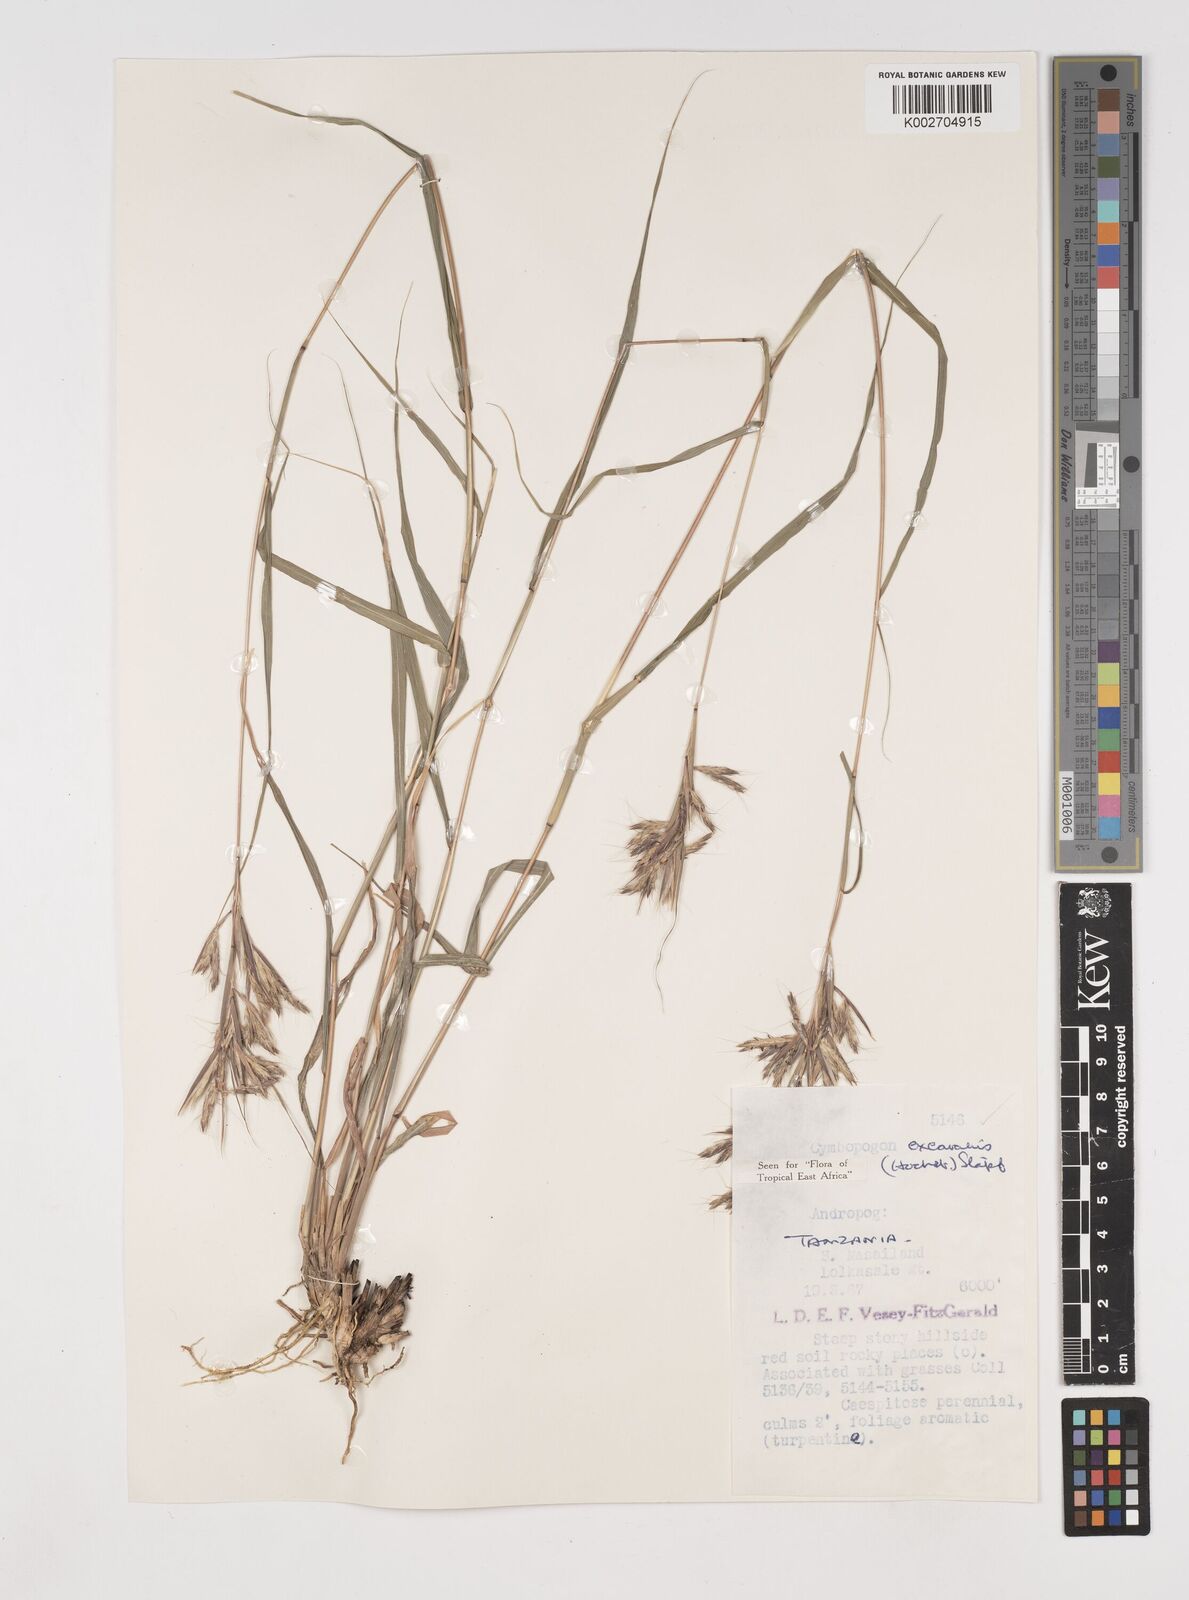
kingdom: Plantae
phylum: Tracheophyta
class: Liliopsida
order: Poales
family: Poaceae
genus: Cymbopogon
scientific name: Cymbopogon caesius
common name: Kachi grass
